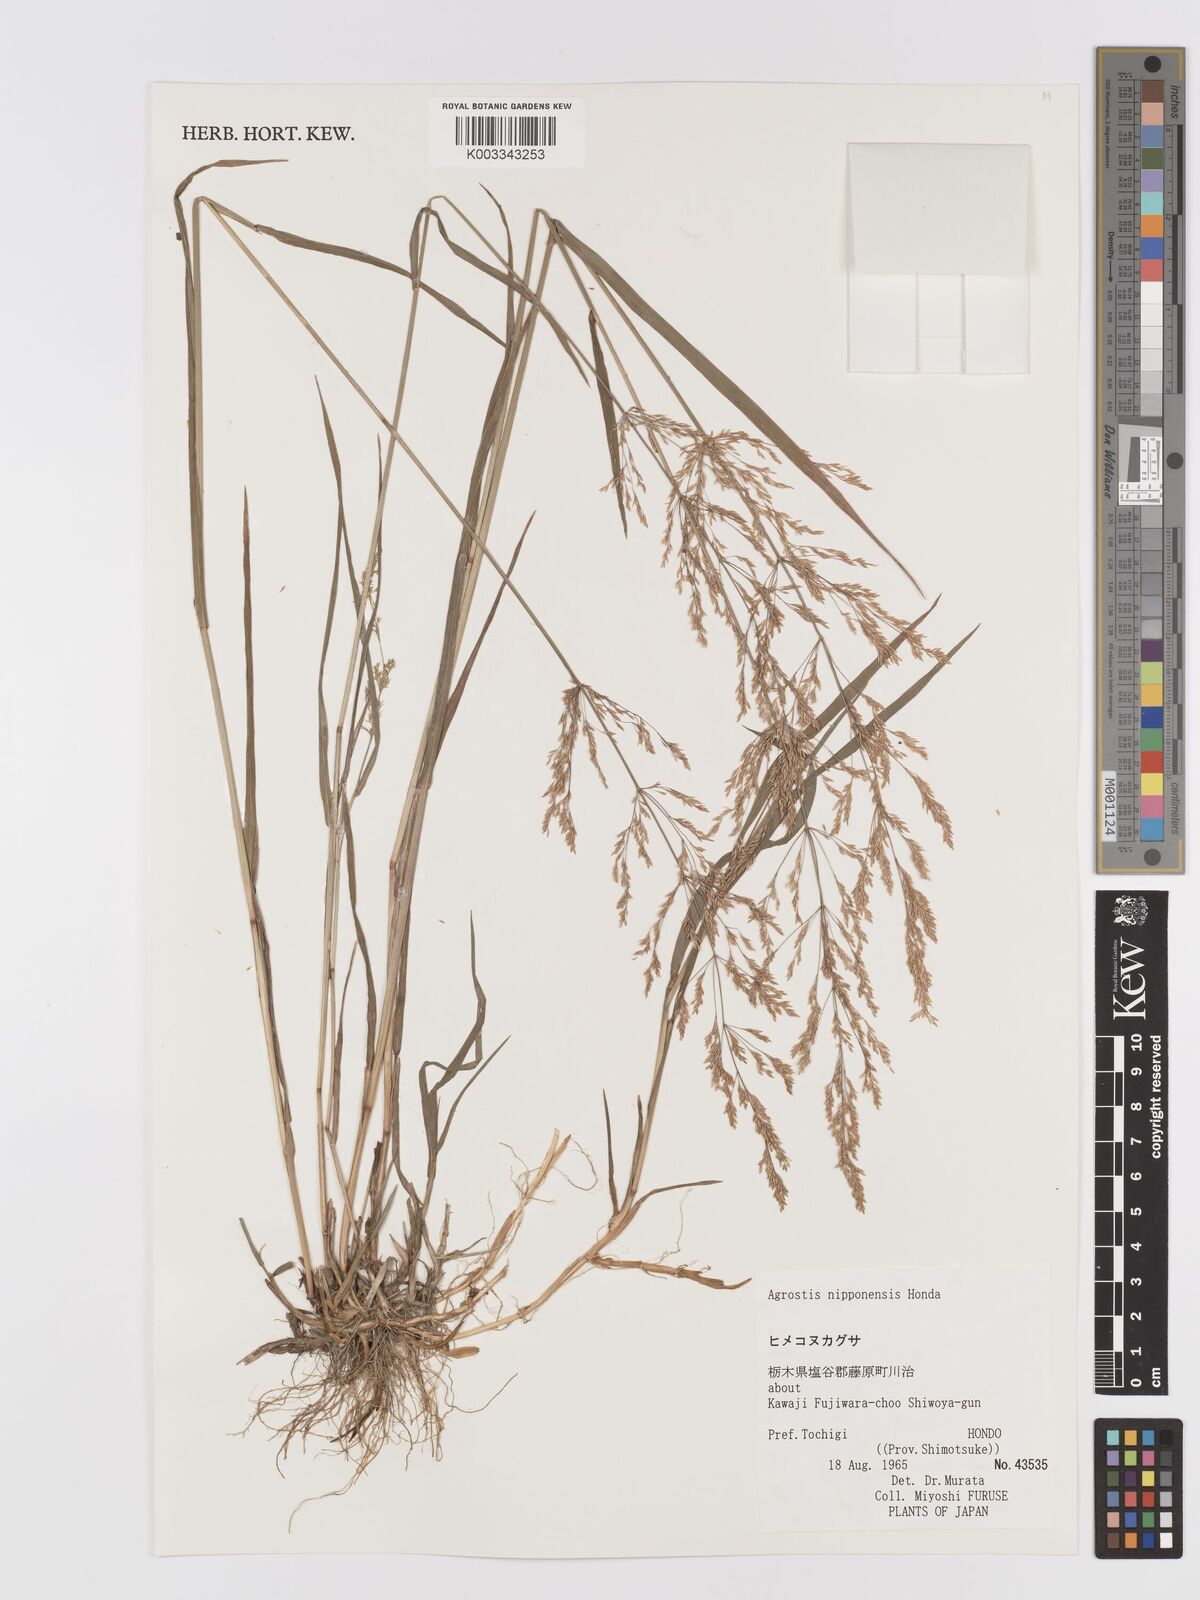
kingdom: Plantae
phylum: Tracheophyta
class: Liliopsida
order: Poales
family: Poaceae
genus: Agrostis
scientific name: Agrostis valvata
